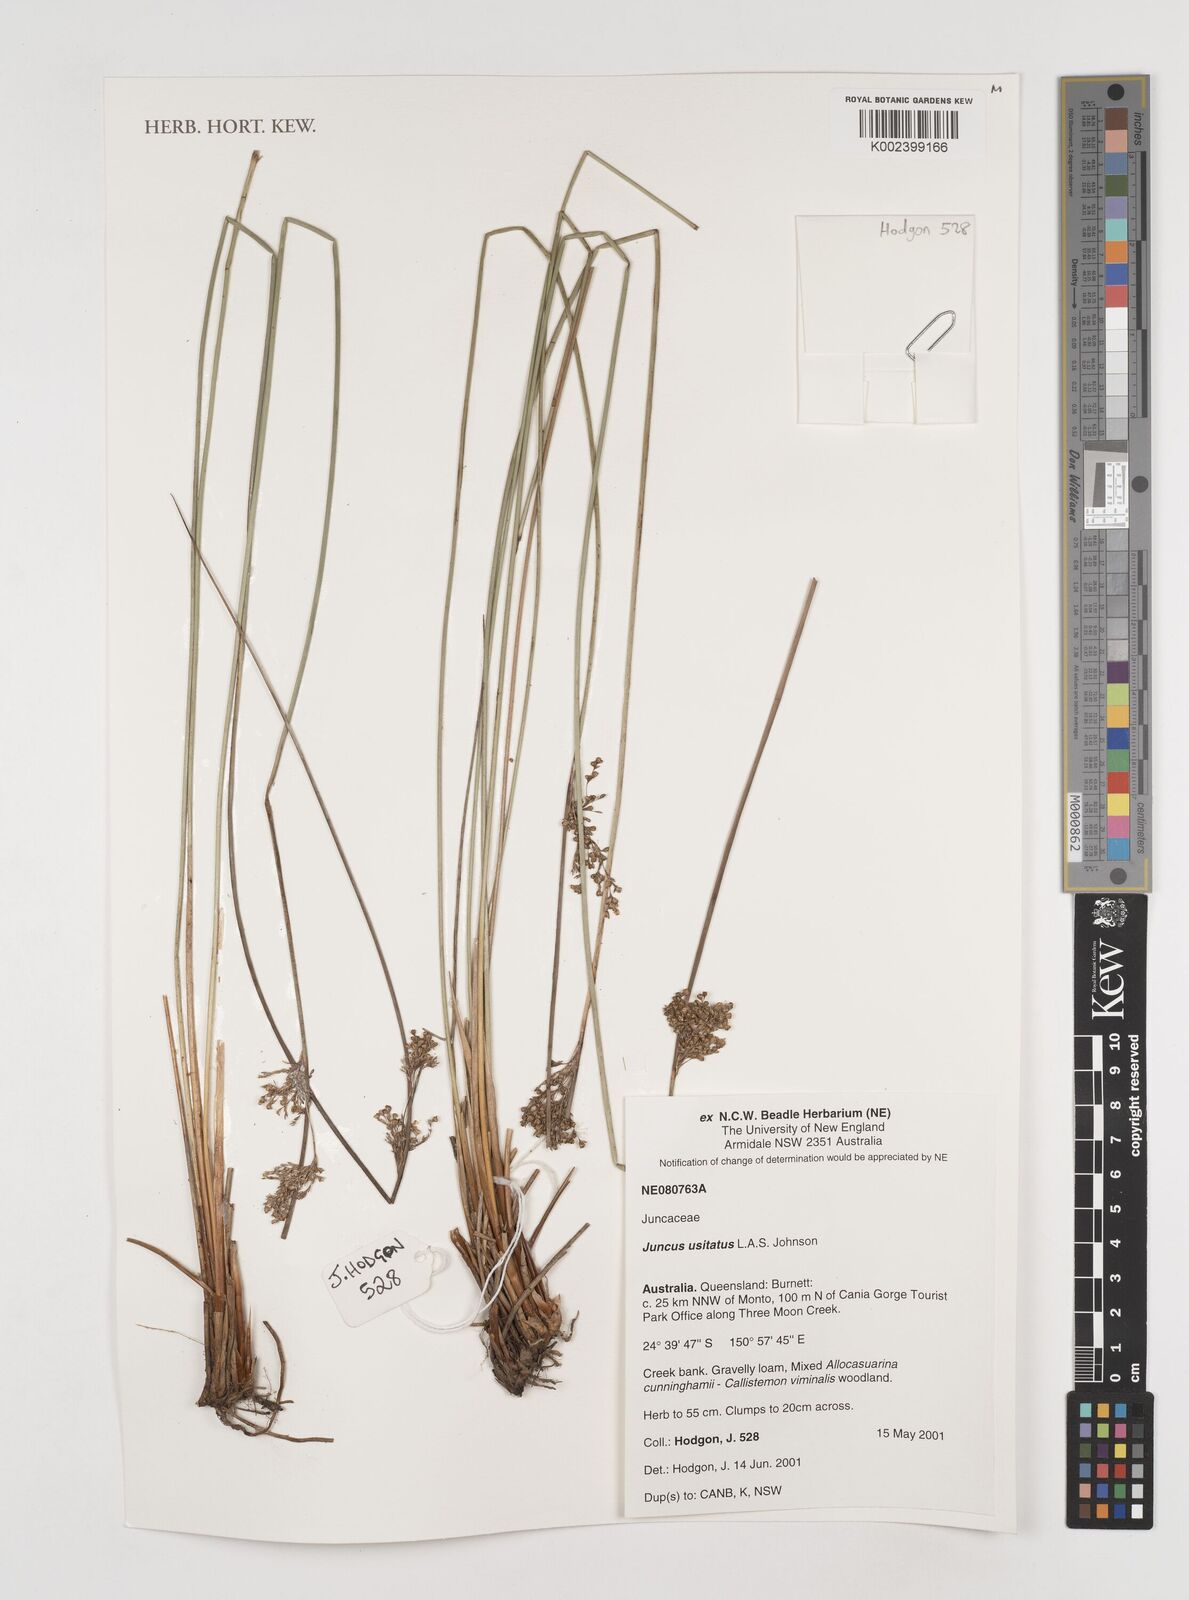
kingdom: Plantae
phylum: Tracheophyta
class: Liliopsida
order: Poales
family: Juncaceae
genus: Juncus
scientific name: Juncus usitatus
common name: Rush
